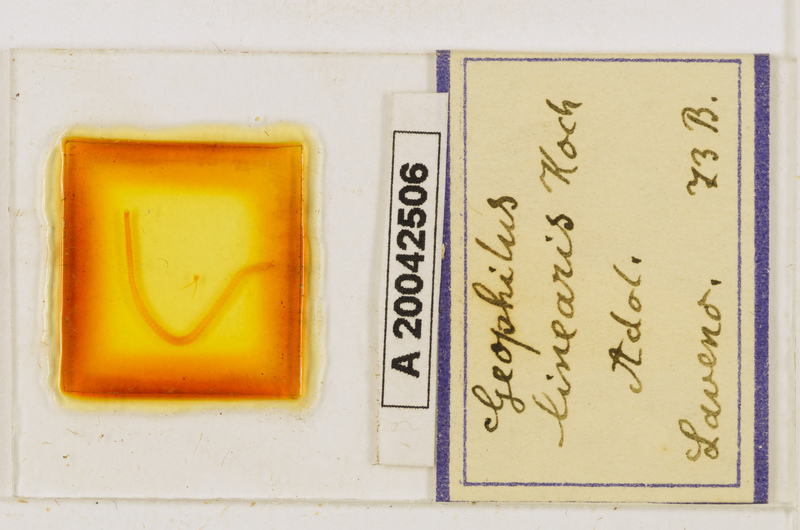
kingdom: Animalia
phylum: Arthropoda
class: Chilopoda
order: Geophilomorpha
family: Geophilidae
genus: Stenotaenia
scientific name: Stenotaenia linearis
